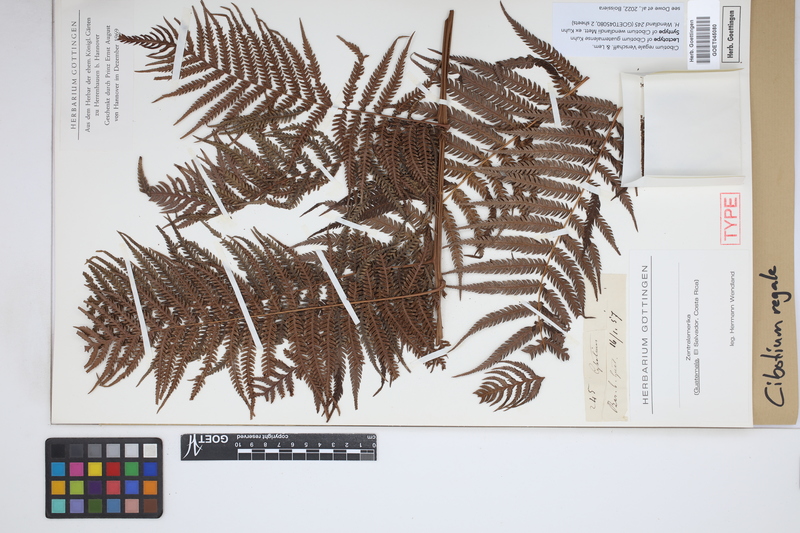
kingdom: Plantae
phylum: Tracheophyta
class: Polypodiopsida
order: Cyatheales
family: Cibotiaceae
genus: Cibotium
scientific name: Cibotium regale
